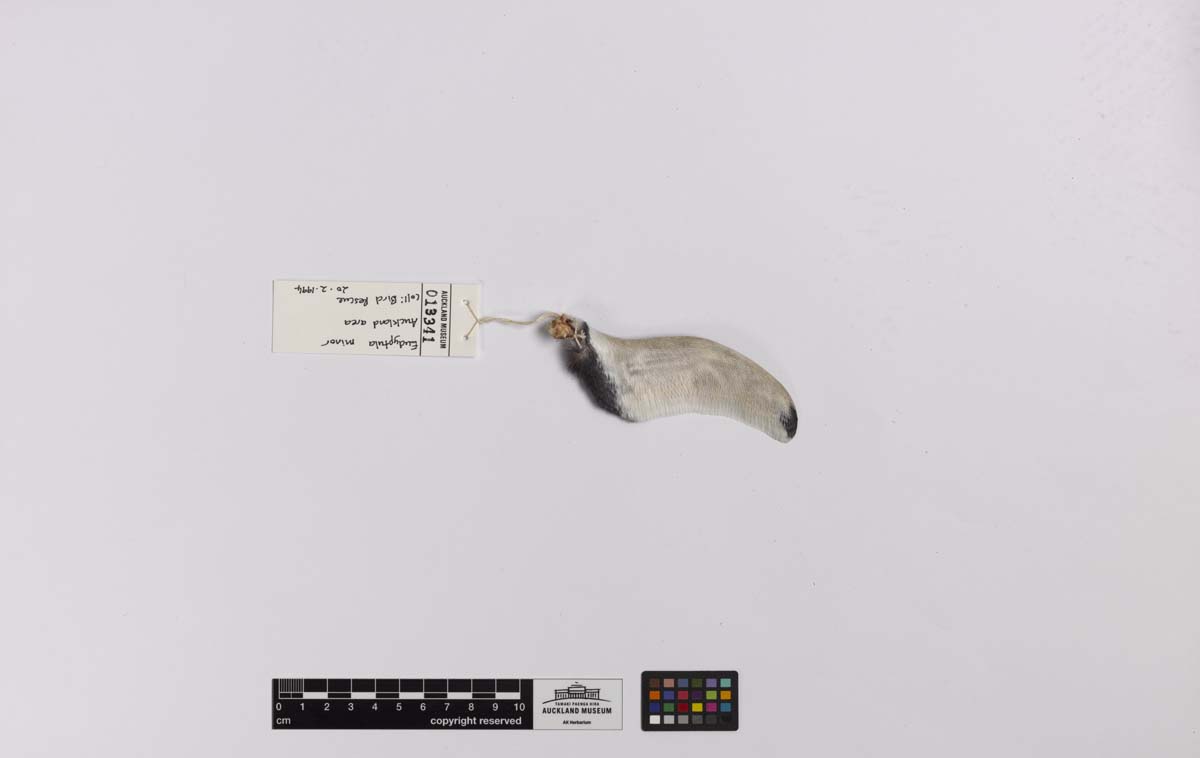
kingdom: Animalia
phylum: Chordata
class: Aves
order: Sphenisciformes
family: Spheniscidae
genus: Eudyptula
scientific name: Eudyptula minor
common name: Little penguin
